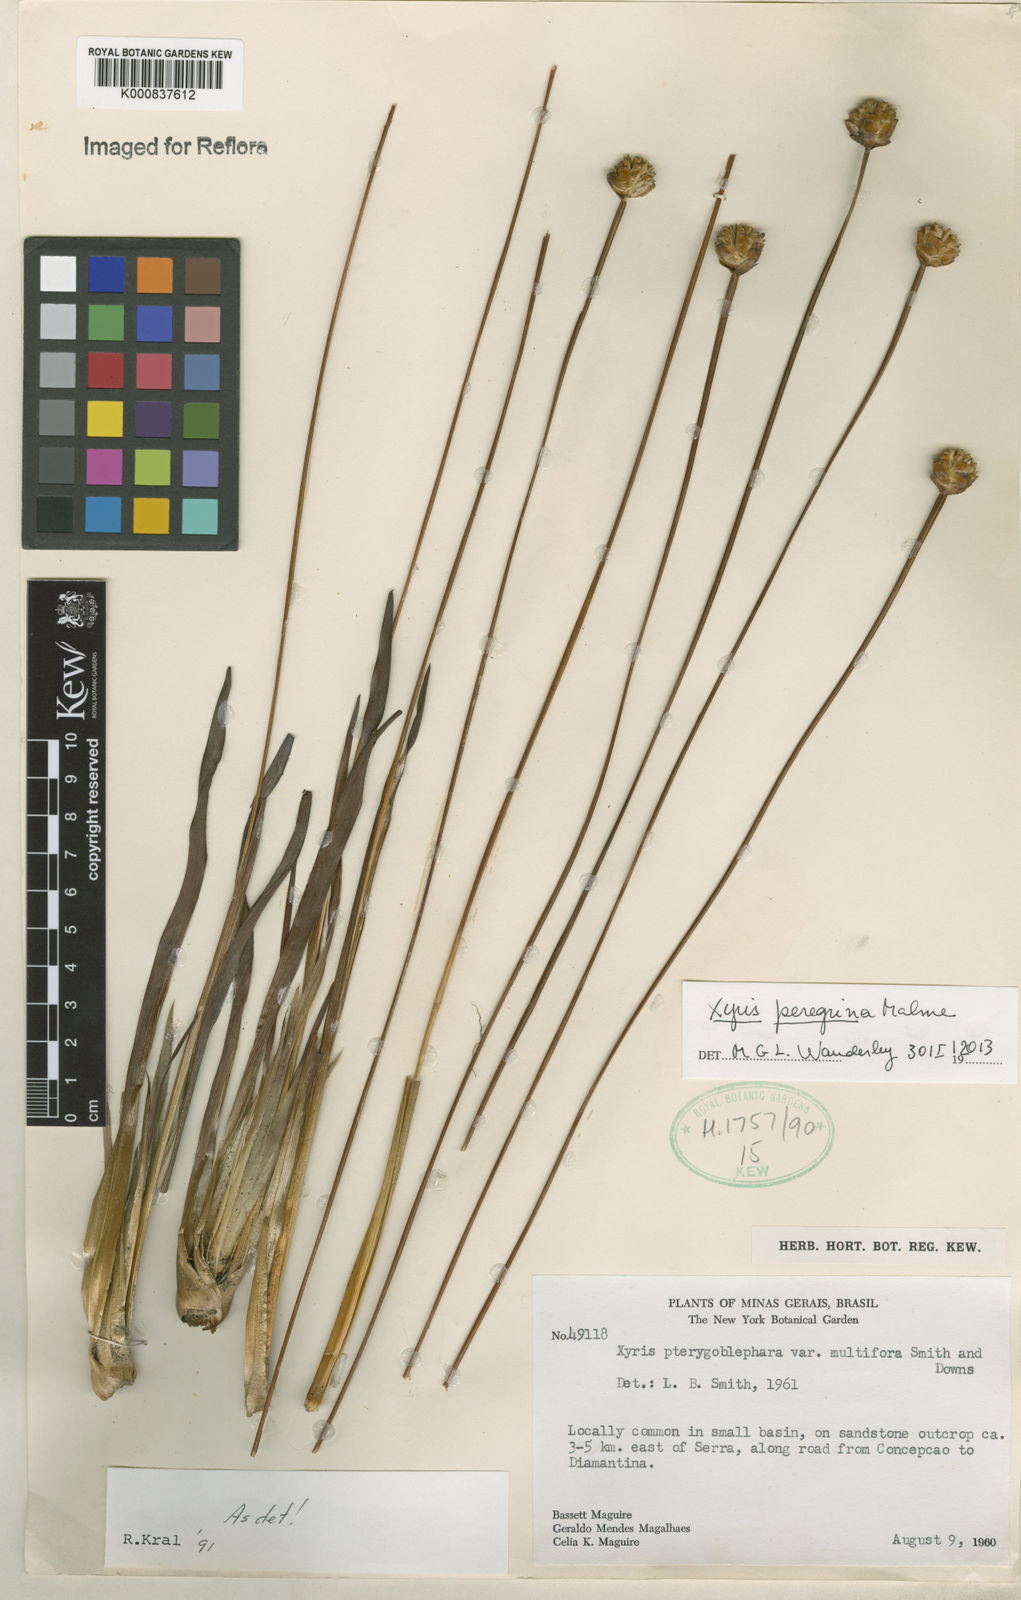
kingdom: Plantae
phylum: Tracheophyta
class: Liliopsida
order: Poales
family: Xyridaceae
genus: Xyris
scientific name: Xyris pterygoblephara
